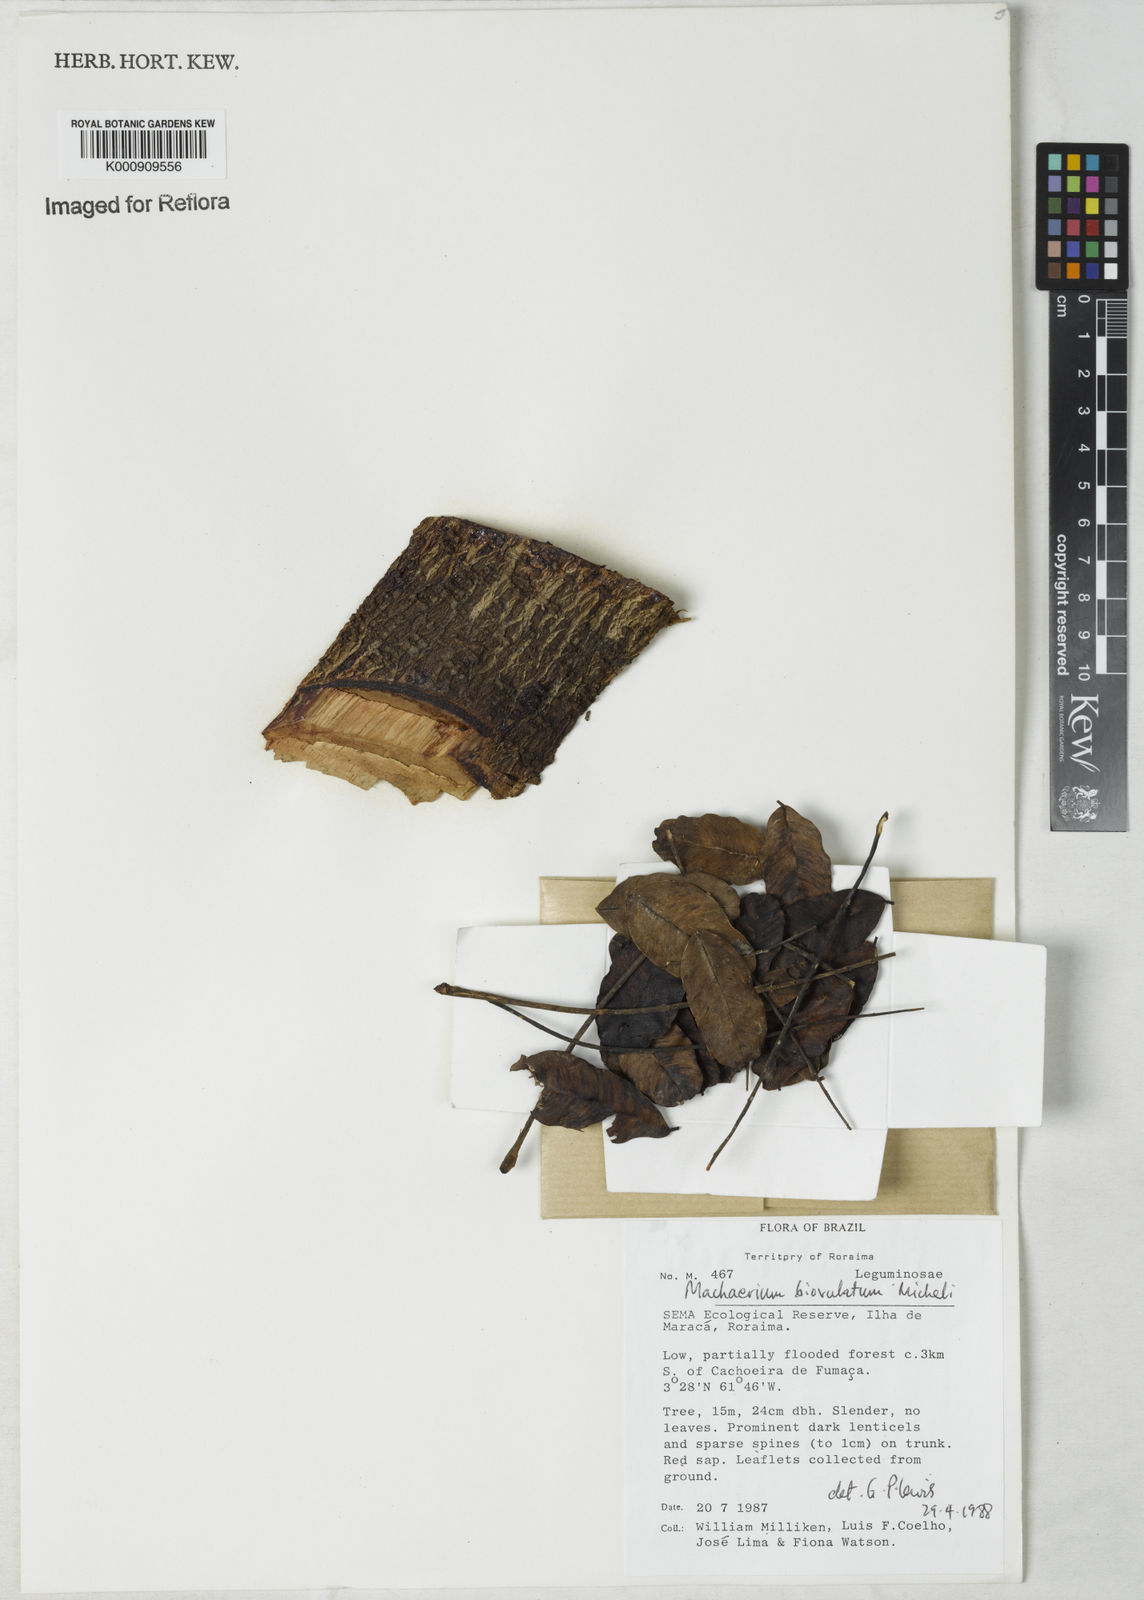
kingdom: Plantae
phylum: Tracheophyta
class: Magnoliopsida
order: Fabales
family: Fabaceae
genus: Machaerium
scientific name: Machaerium biovulatum
